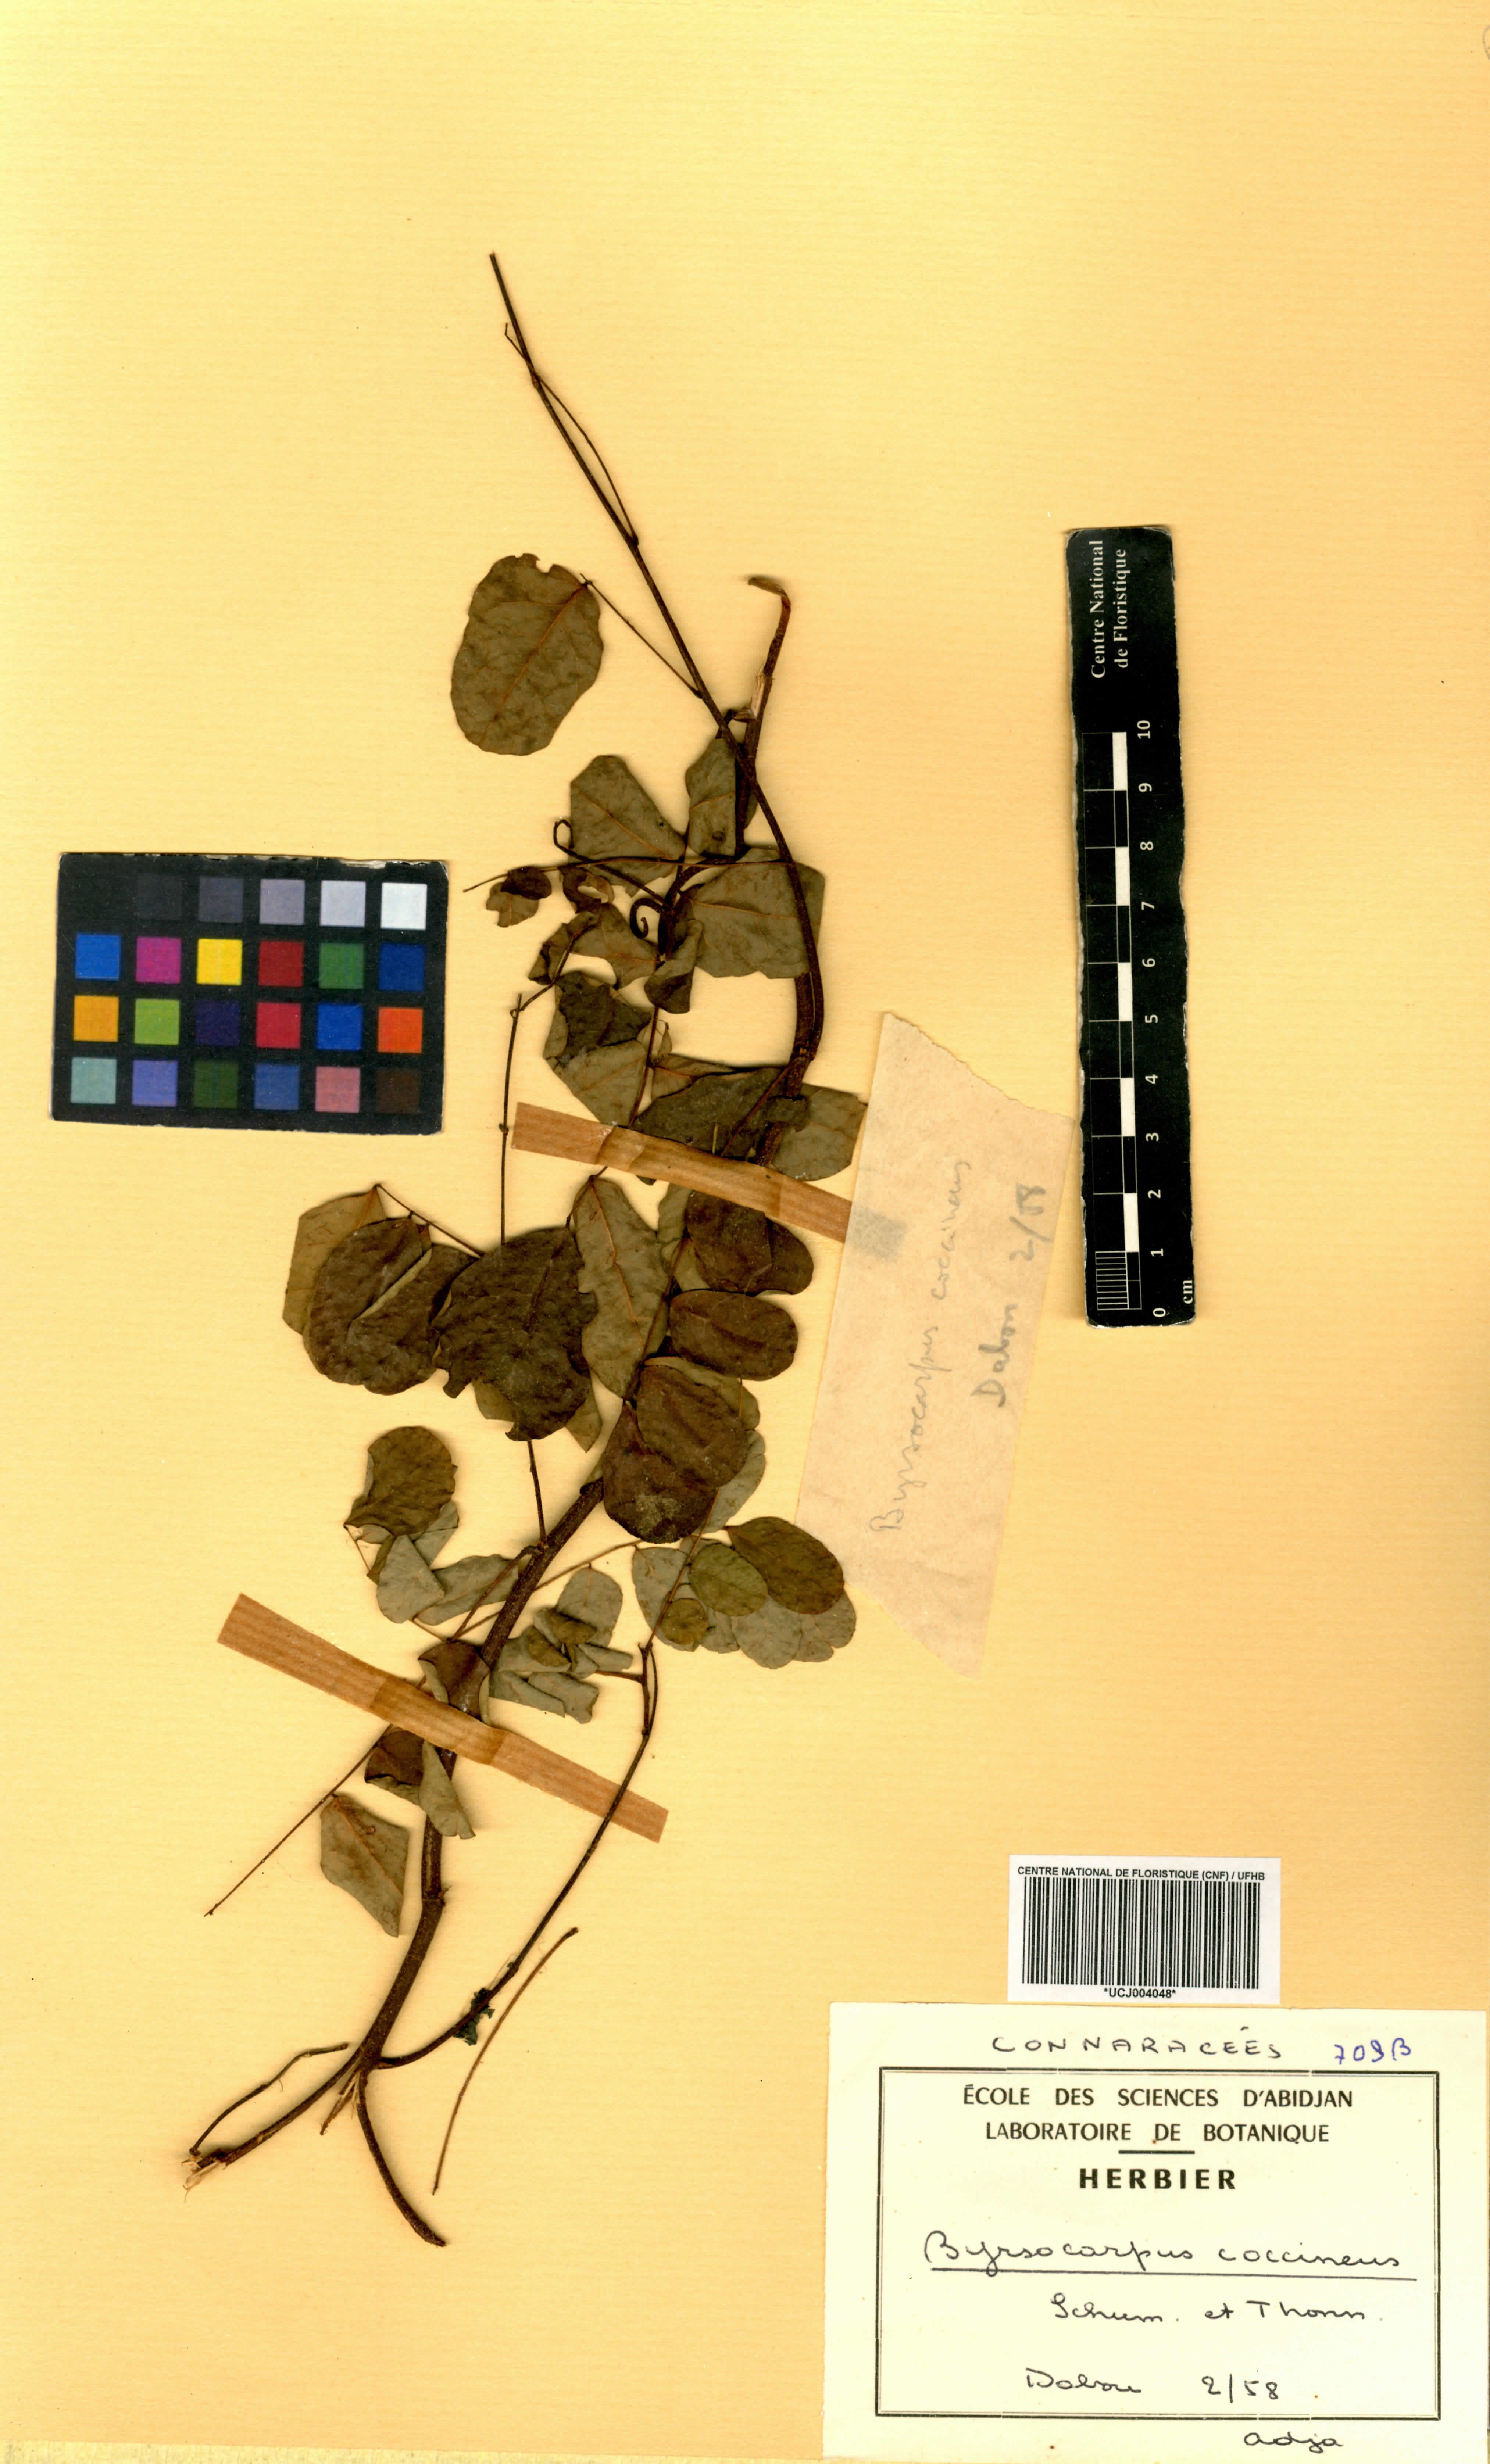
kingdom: Plantae
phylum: Tracheophyta
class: Magnoliopsida
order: Oxalidales
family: Connaraceae
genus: Rourea
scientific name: Rourea coccinea
